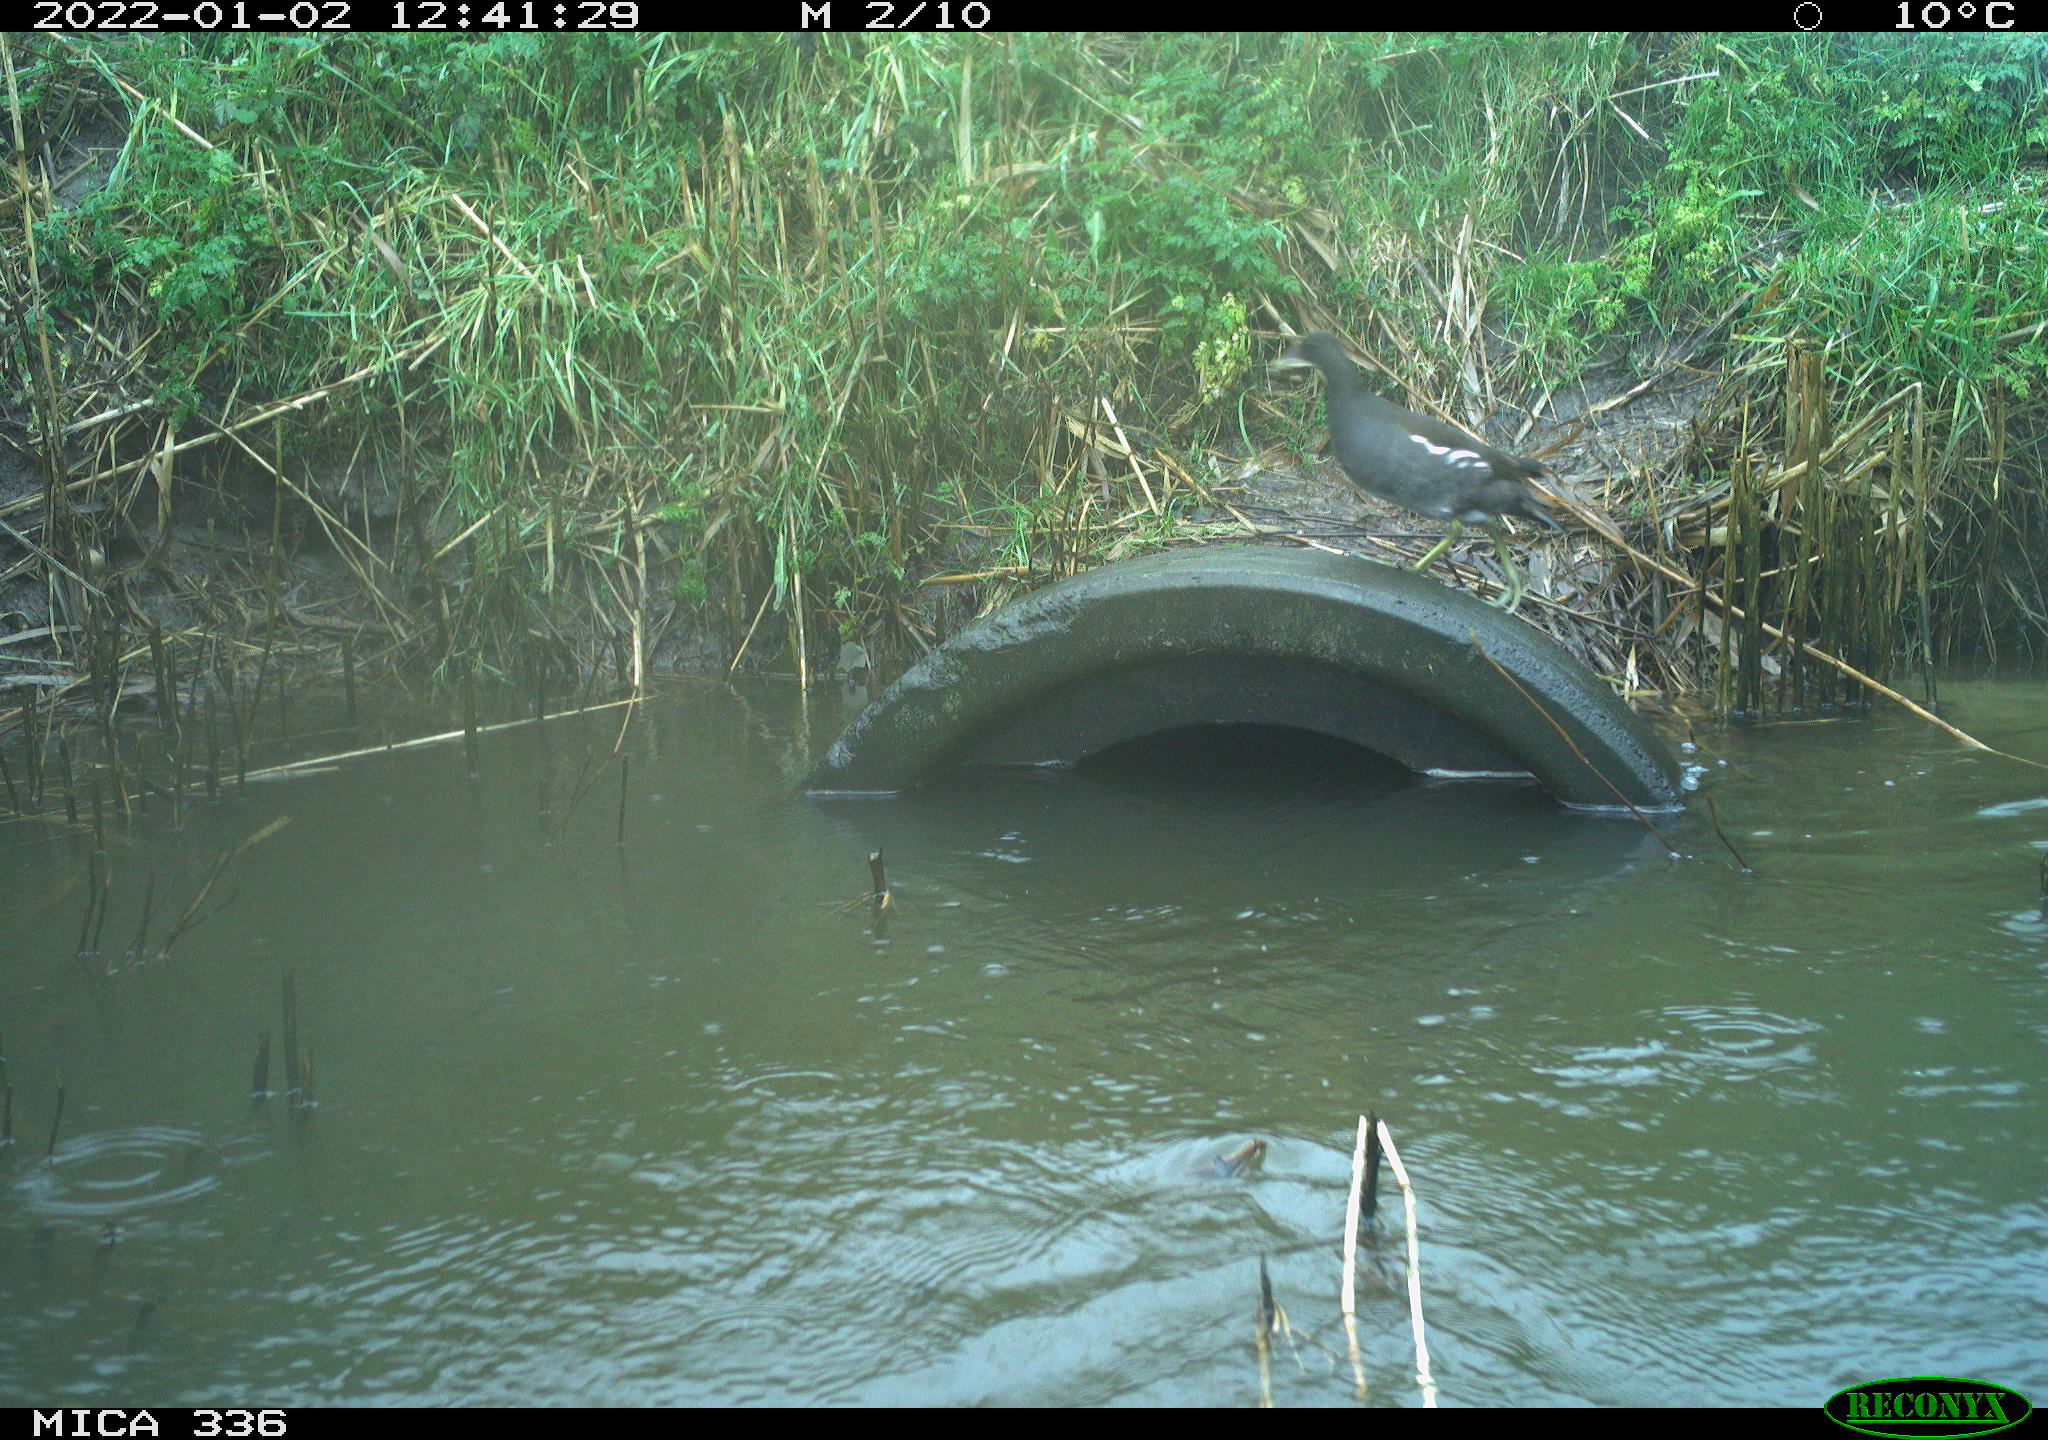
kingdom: Animalia
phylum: Chordata
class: Aves
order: Gruiformes
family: Rallidae
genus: Gallinula
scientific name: Gallinula chloropus
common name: Common moorhen
